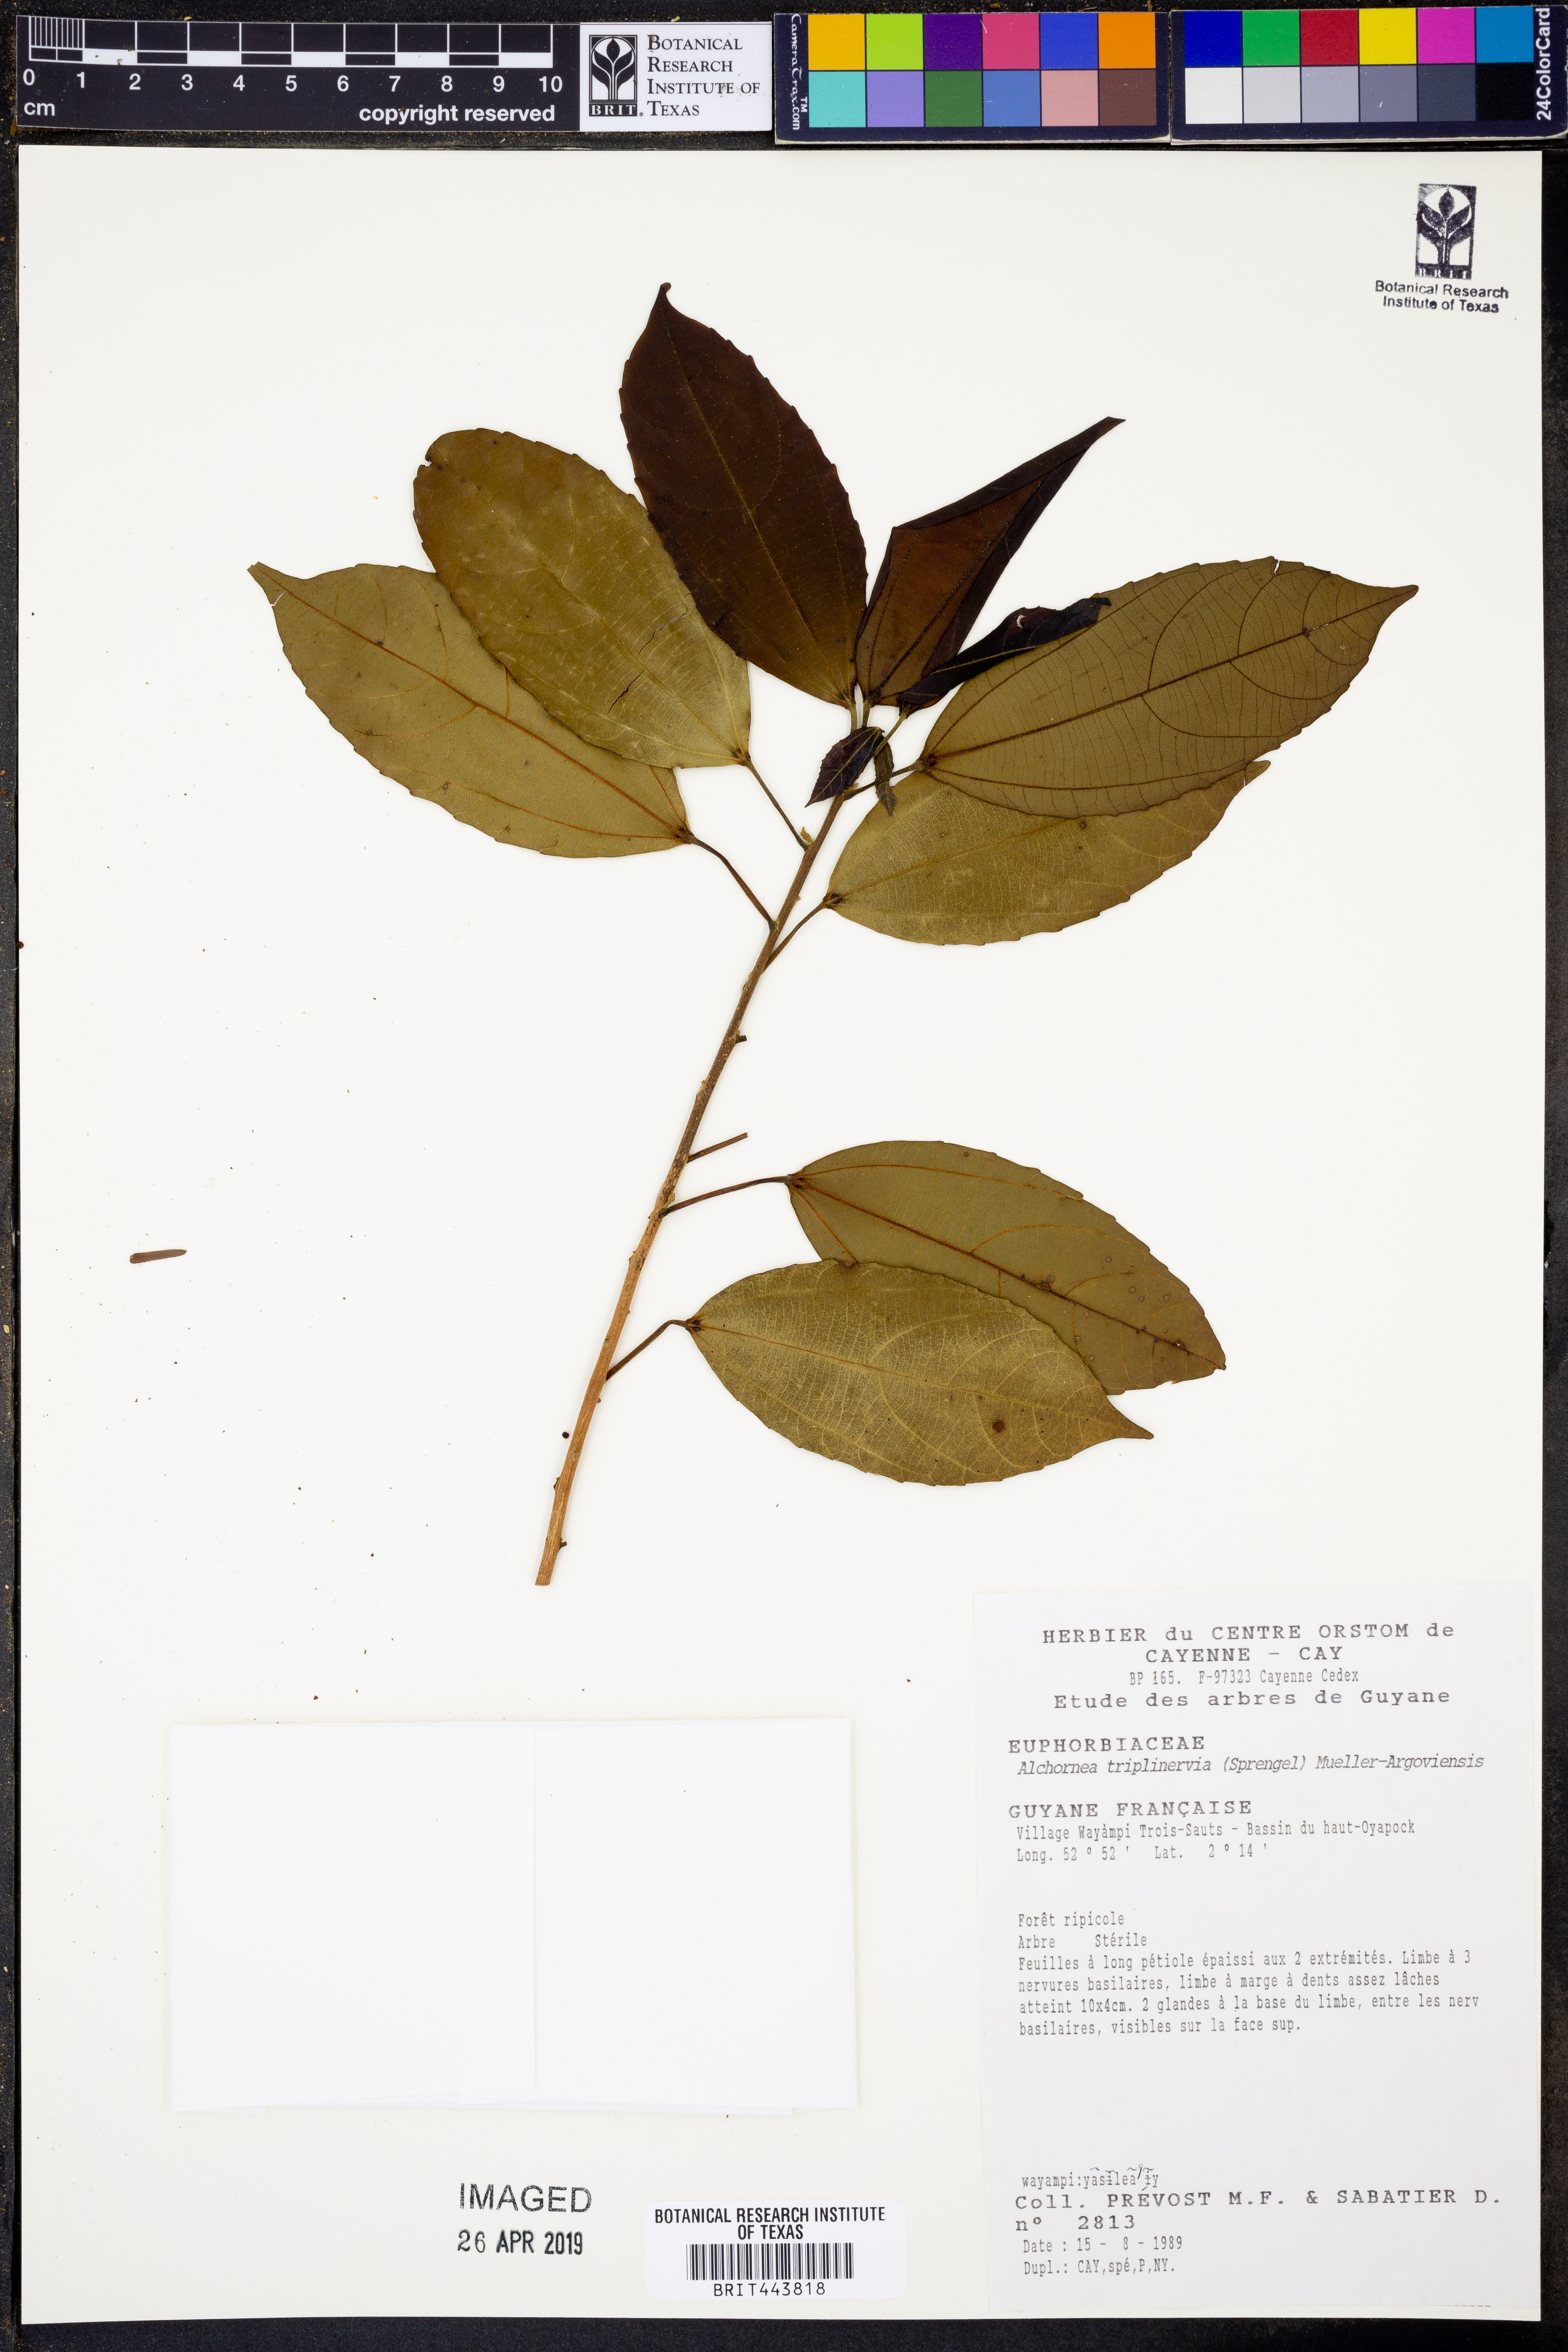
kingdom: Plantae
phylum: Tracheophyta
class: Magnoliopsida
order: Malpighiales
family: Euphorbiaceae
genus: Alchornea
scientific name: Alchornea triplinervia
